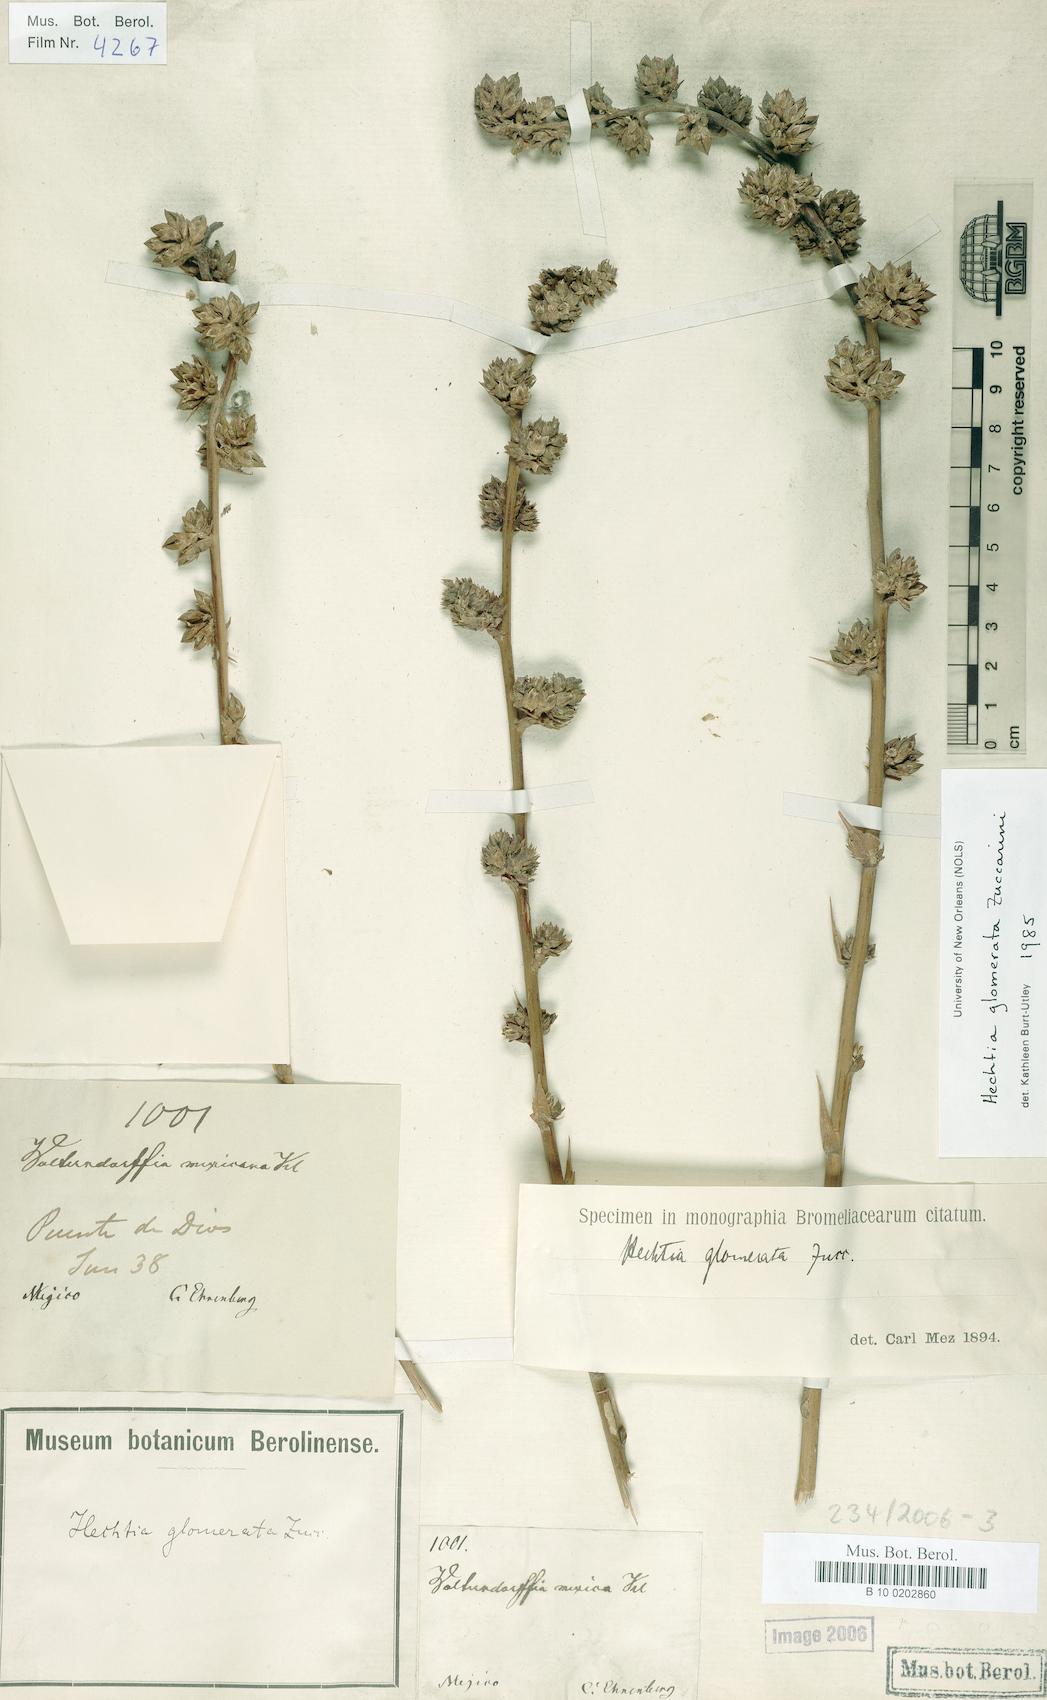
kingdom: Plantae
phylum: Tracheophyta
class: Liliopsida
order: Poales
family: Bromeliaceae
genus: Hechtia
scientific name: Hechtia glomerata
